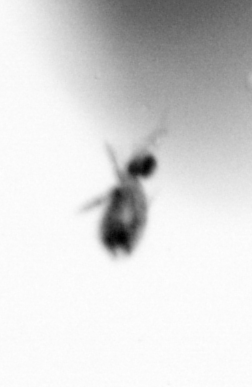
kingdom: Animalia
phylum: Arthropoda
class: Copepoda
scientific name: Copepoda
